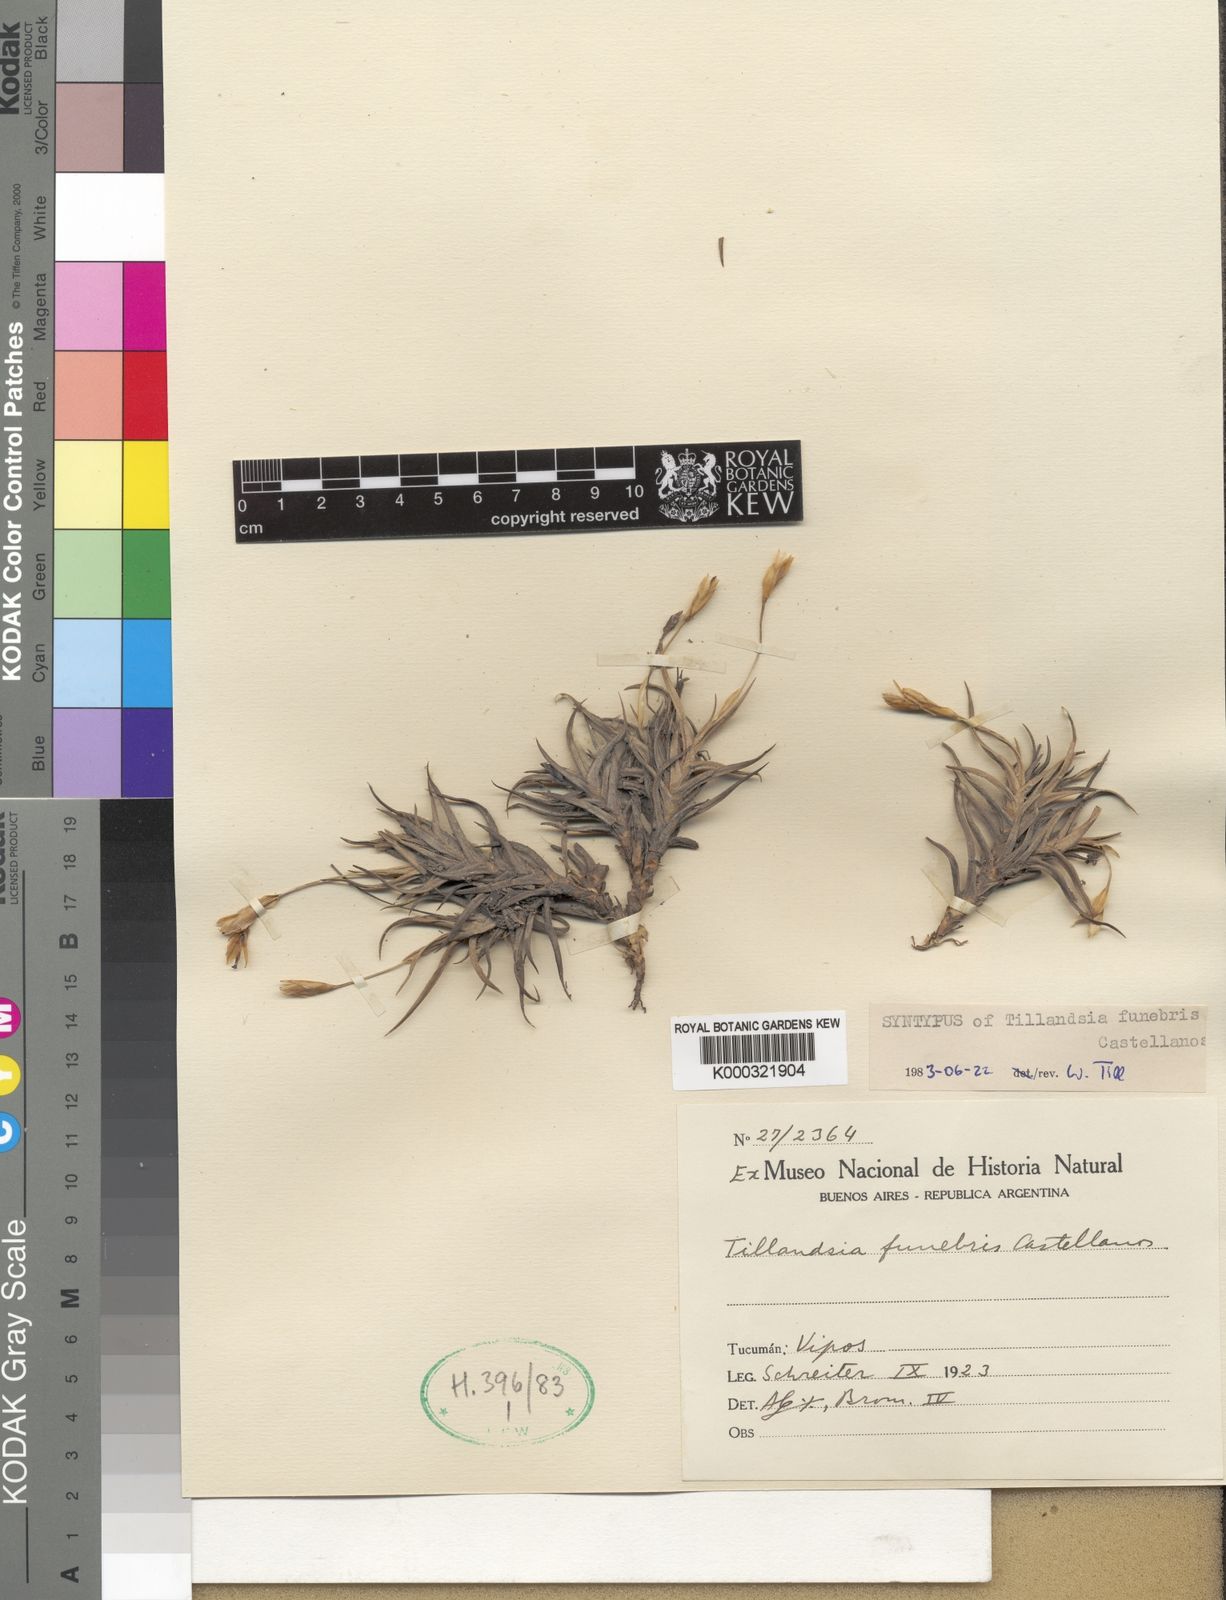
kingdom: Plantae
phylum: Tracheophyta
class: Liliopsida
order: Poales
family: Bromeliaceae
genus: Tillandsia
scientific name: Tillandsia funebris
